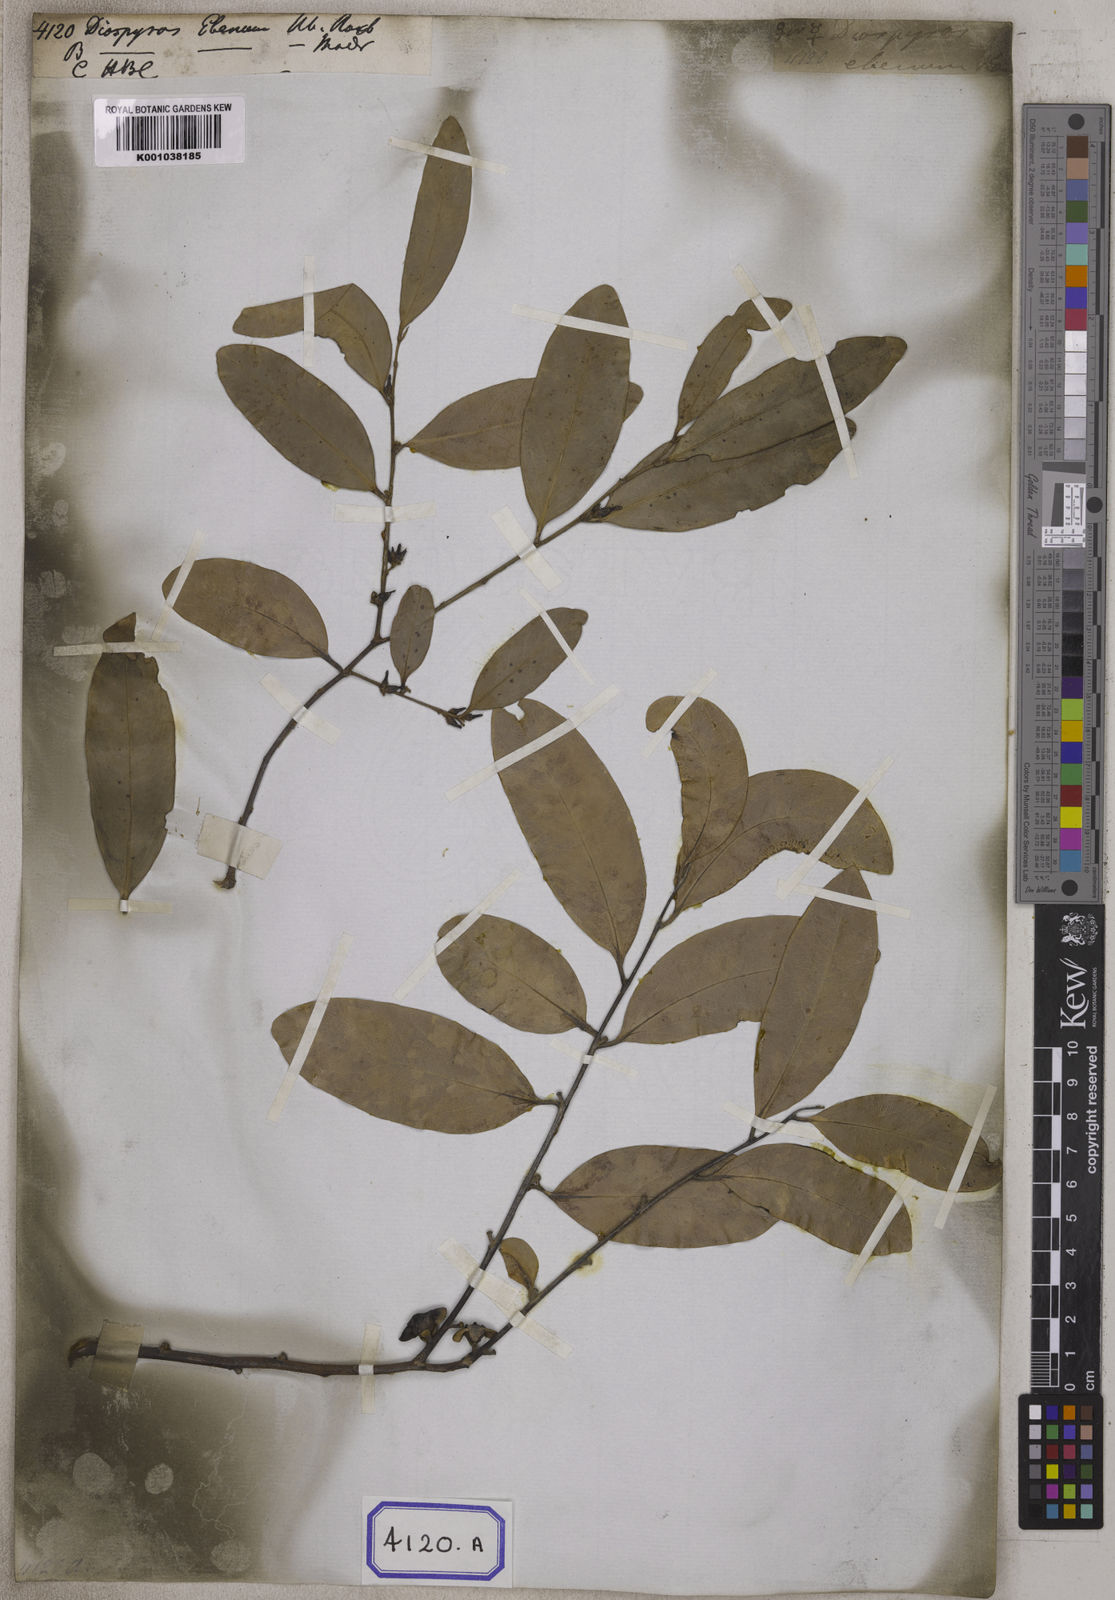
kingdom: Plantae
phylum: Tracheophyta
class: Magnoliopsida
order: Ericales
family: Ebenaceae
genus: Diospyros
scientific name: Diospyros
